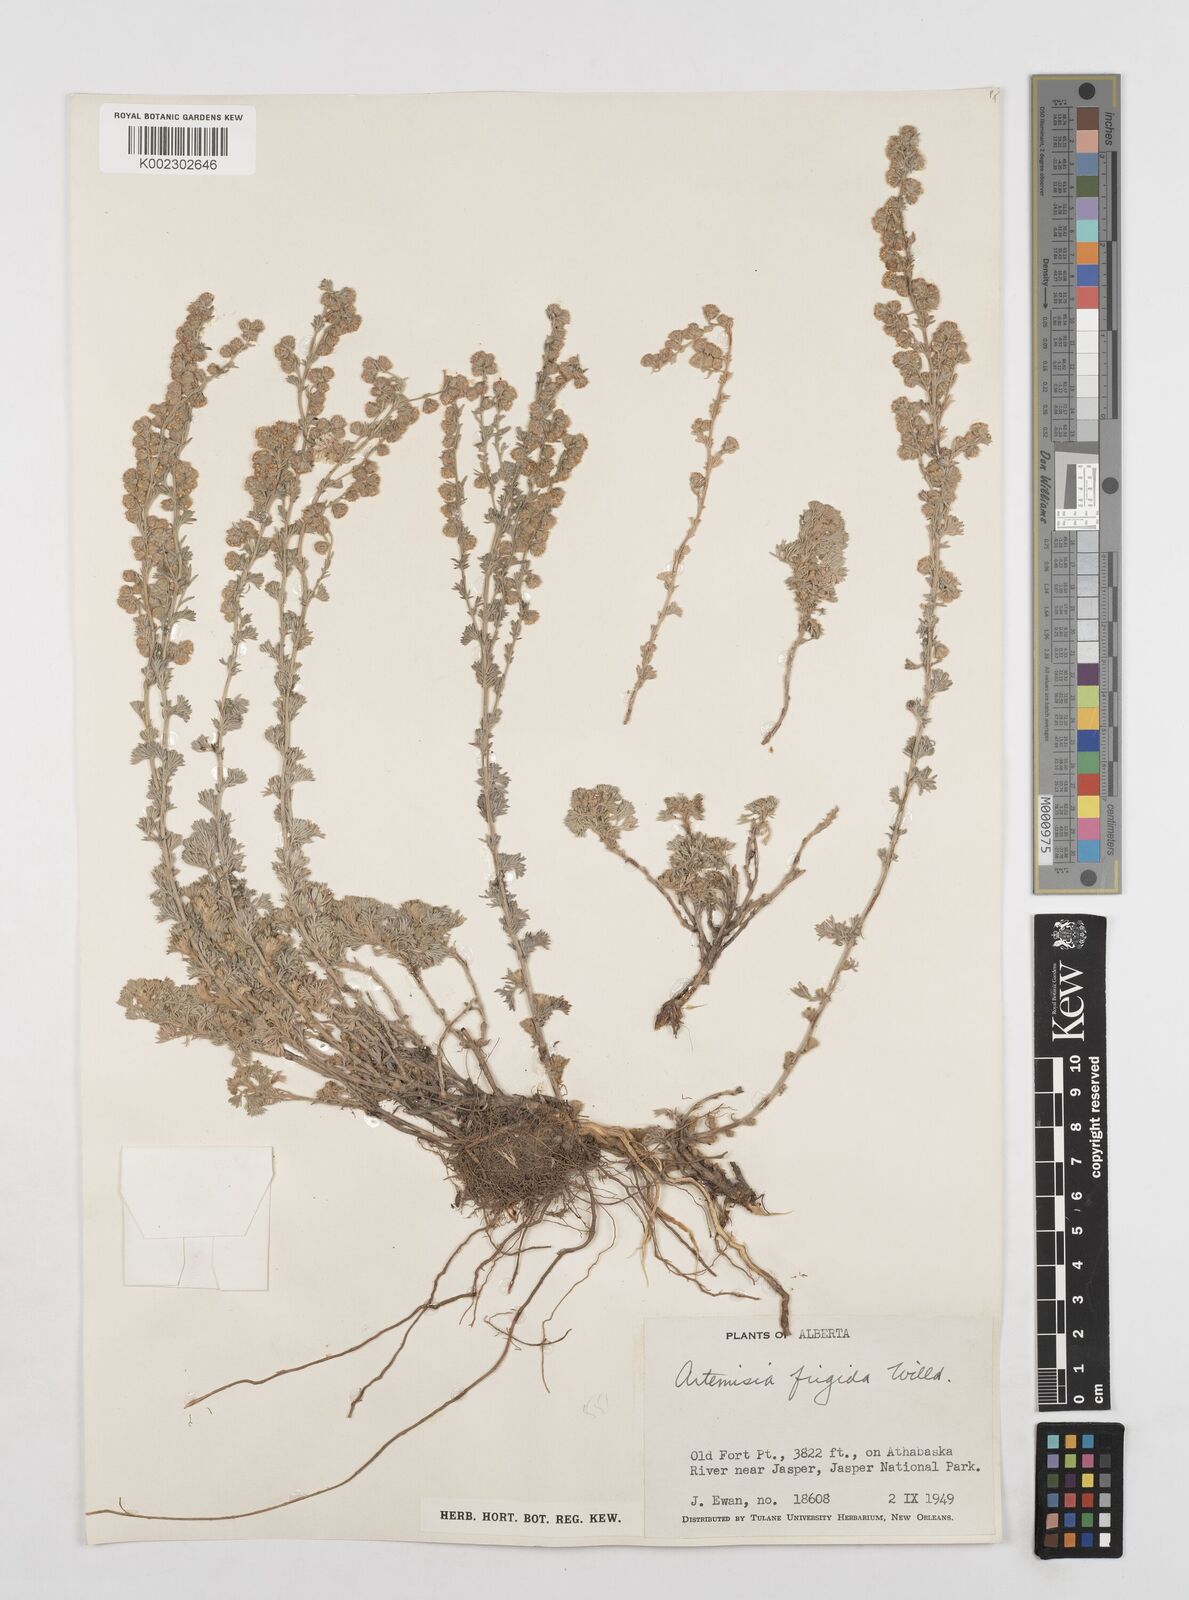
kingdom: Plantae
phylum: Tracheophyta
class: Magnoliopsida
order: Asterales
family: Asteraceae
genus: Artemisia
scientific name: Artemisia frigida
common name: Prairie sagewort
